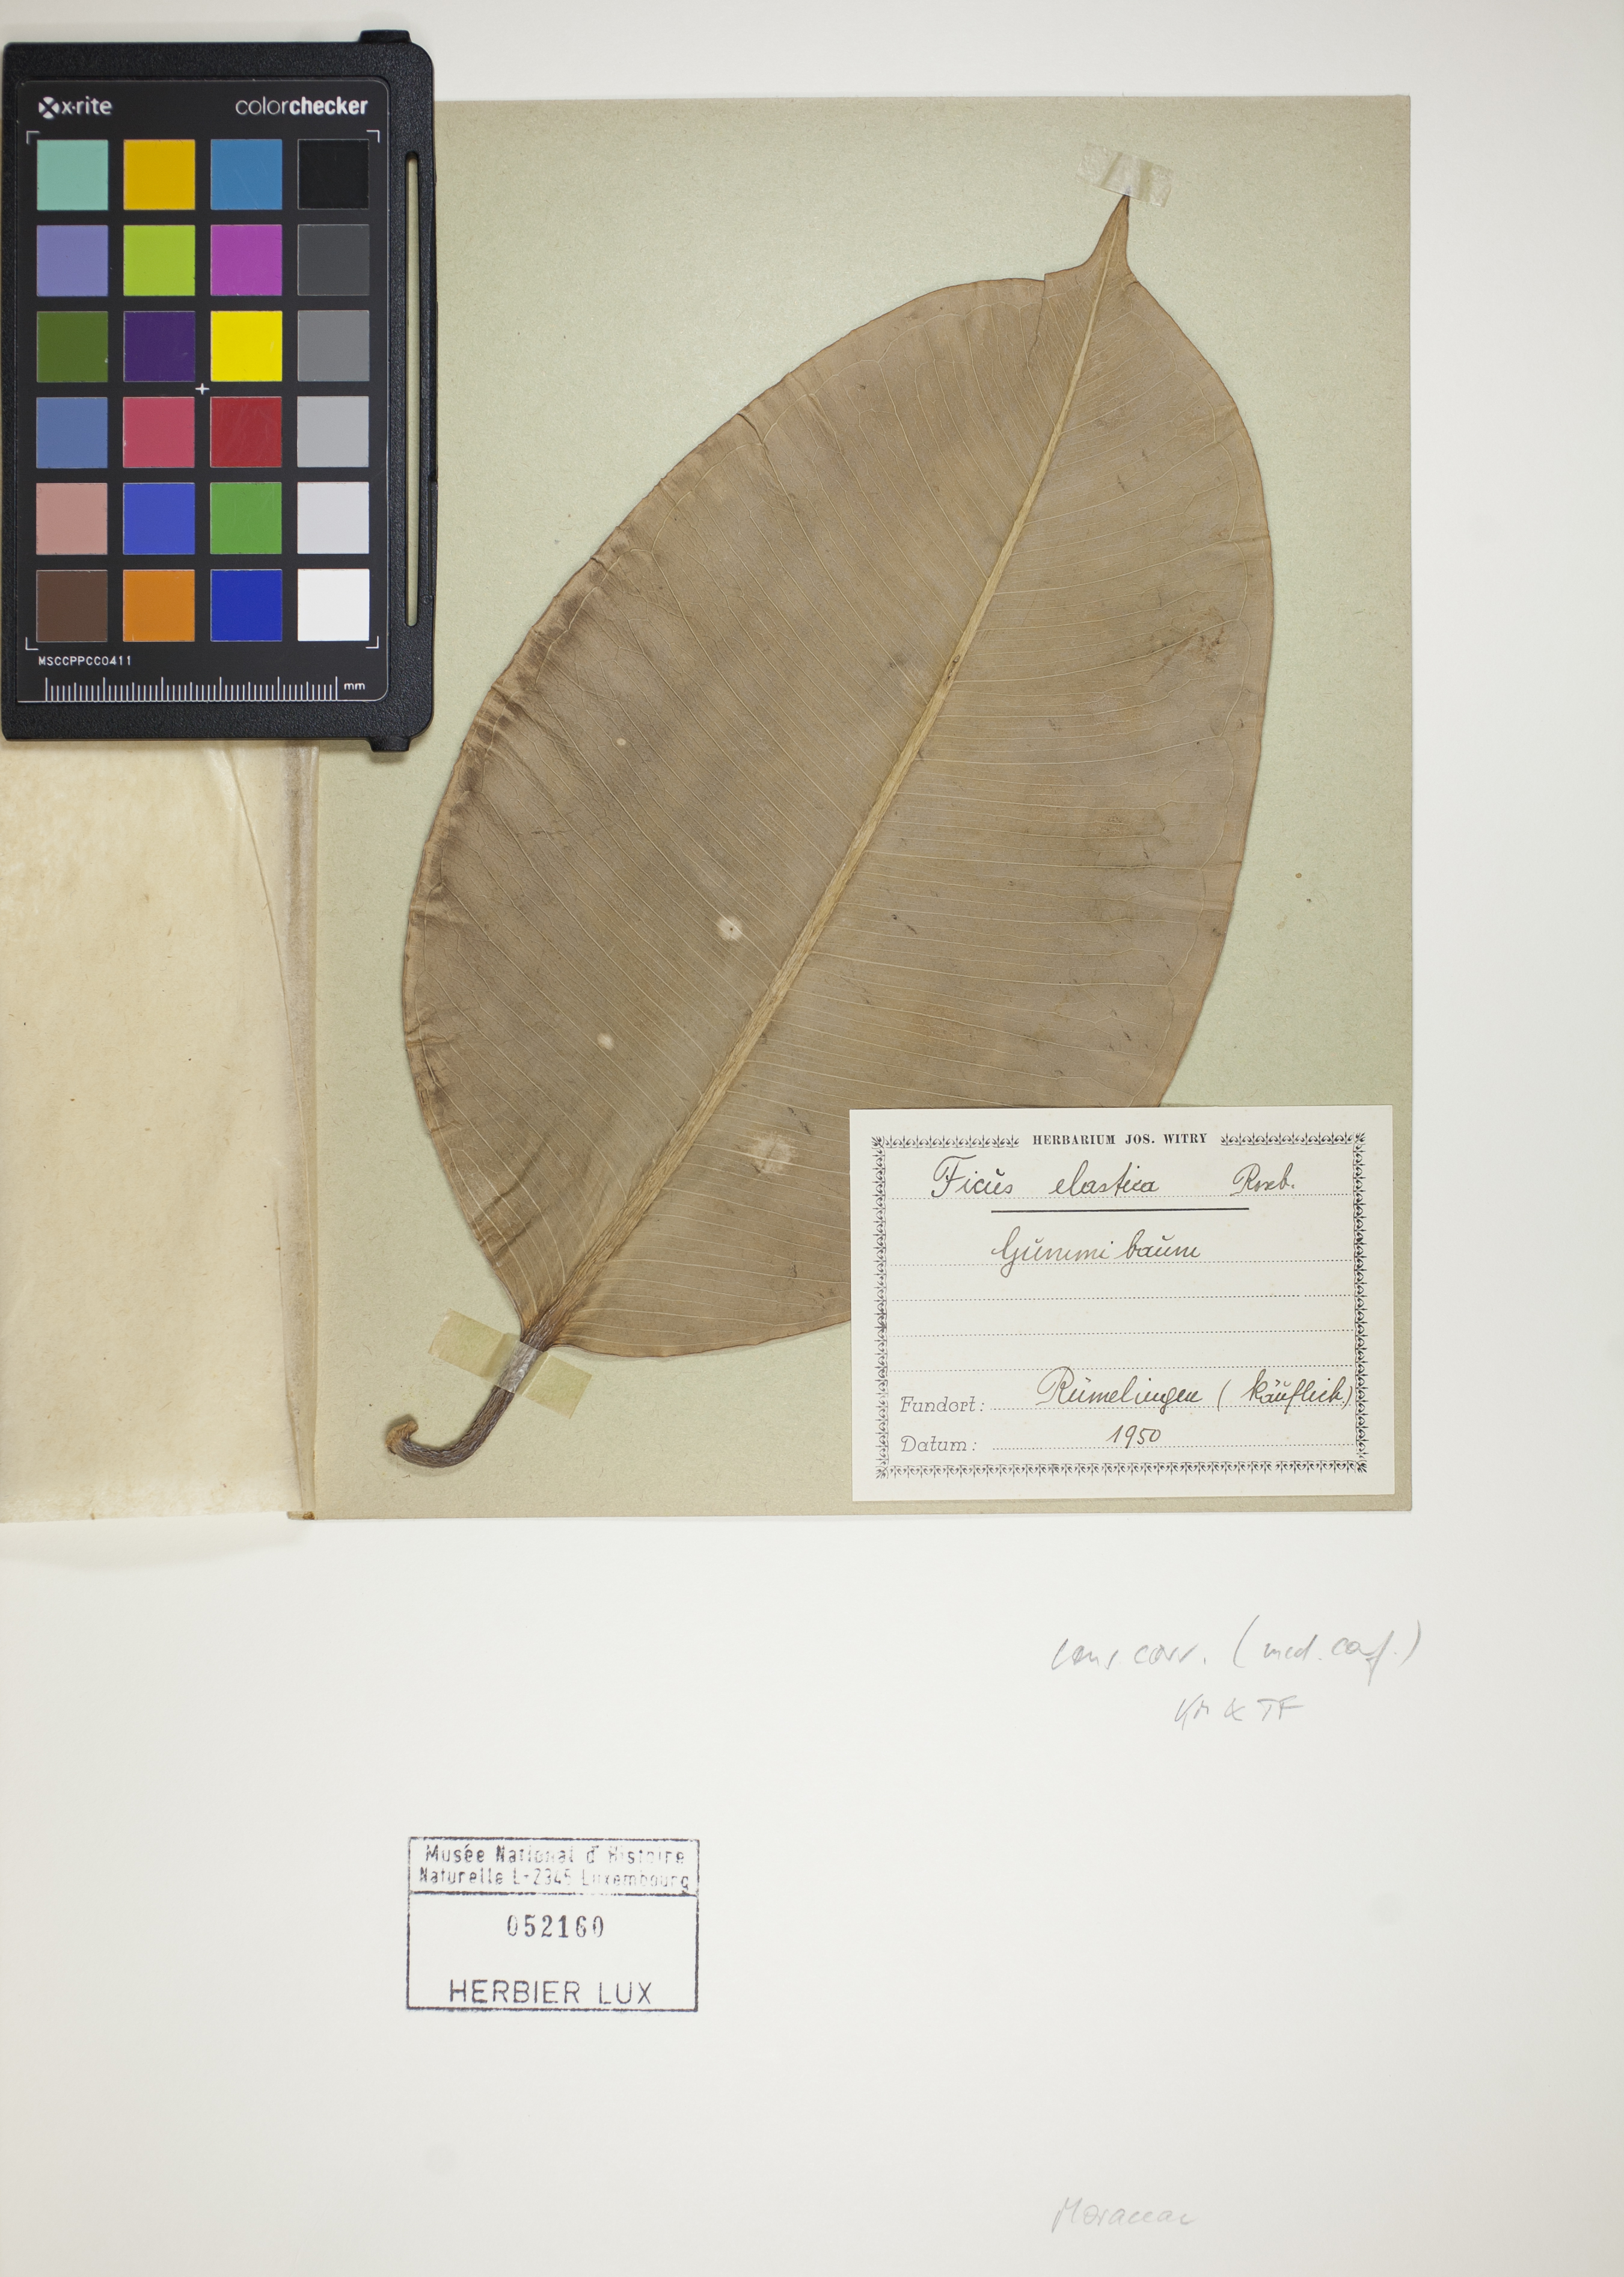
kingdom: Plantae
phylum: Tracheophyta
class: Magnoliopsida
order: Rosales
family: Moraceae
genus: Ficus
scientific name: Ficus elastica
